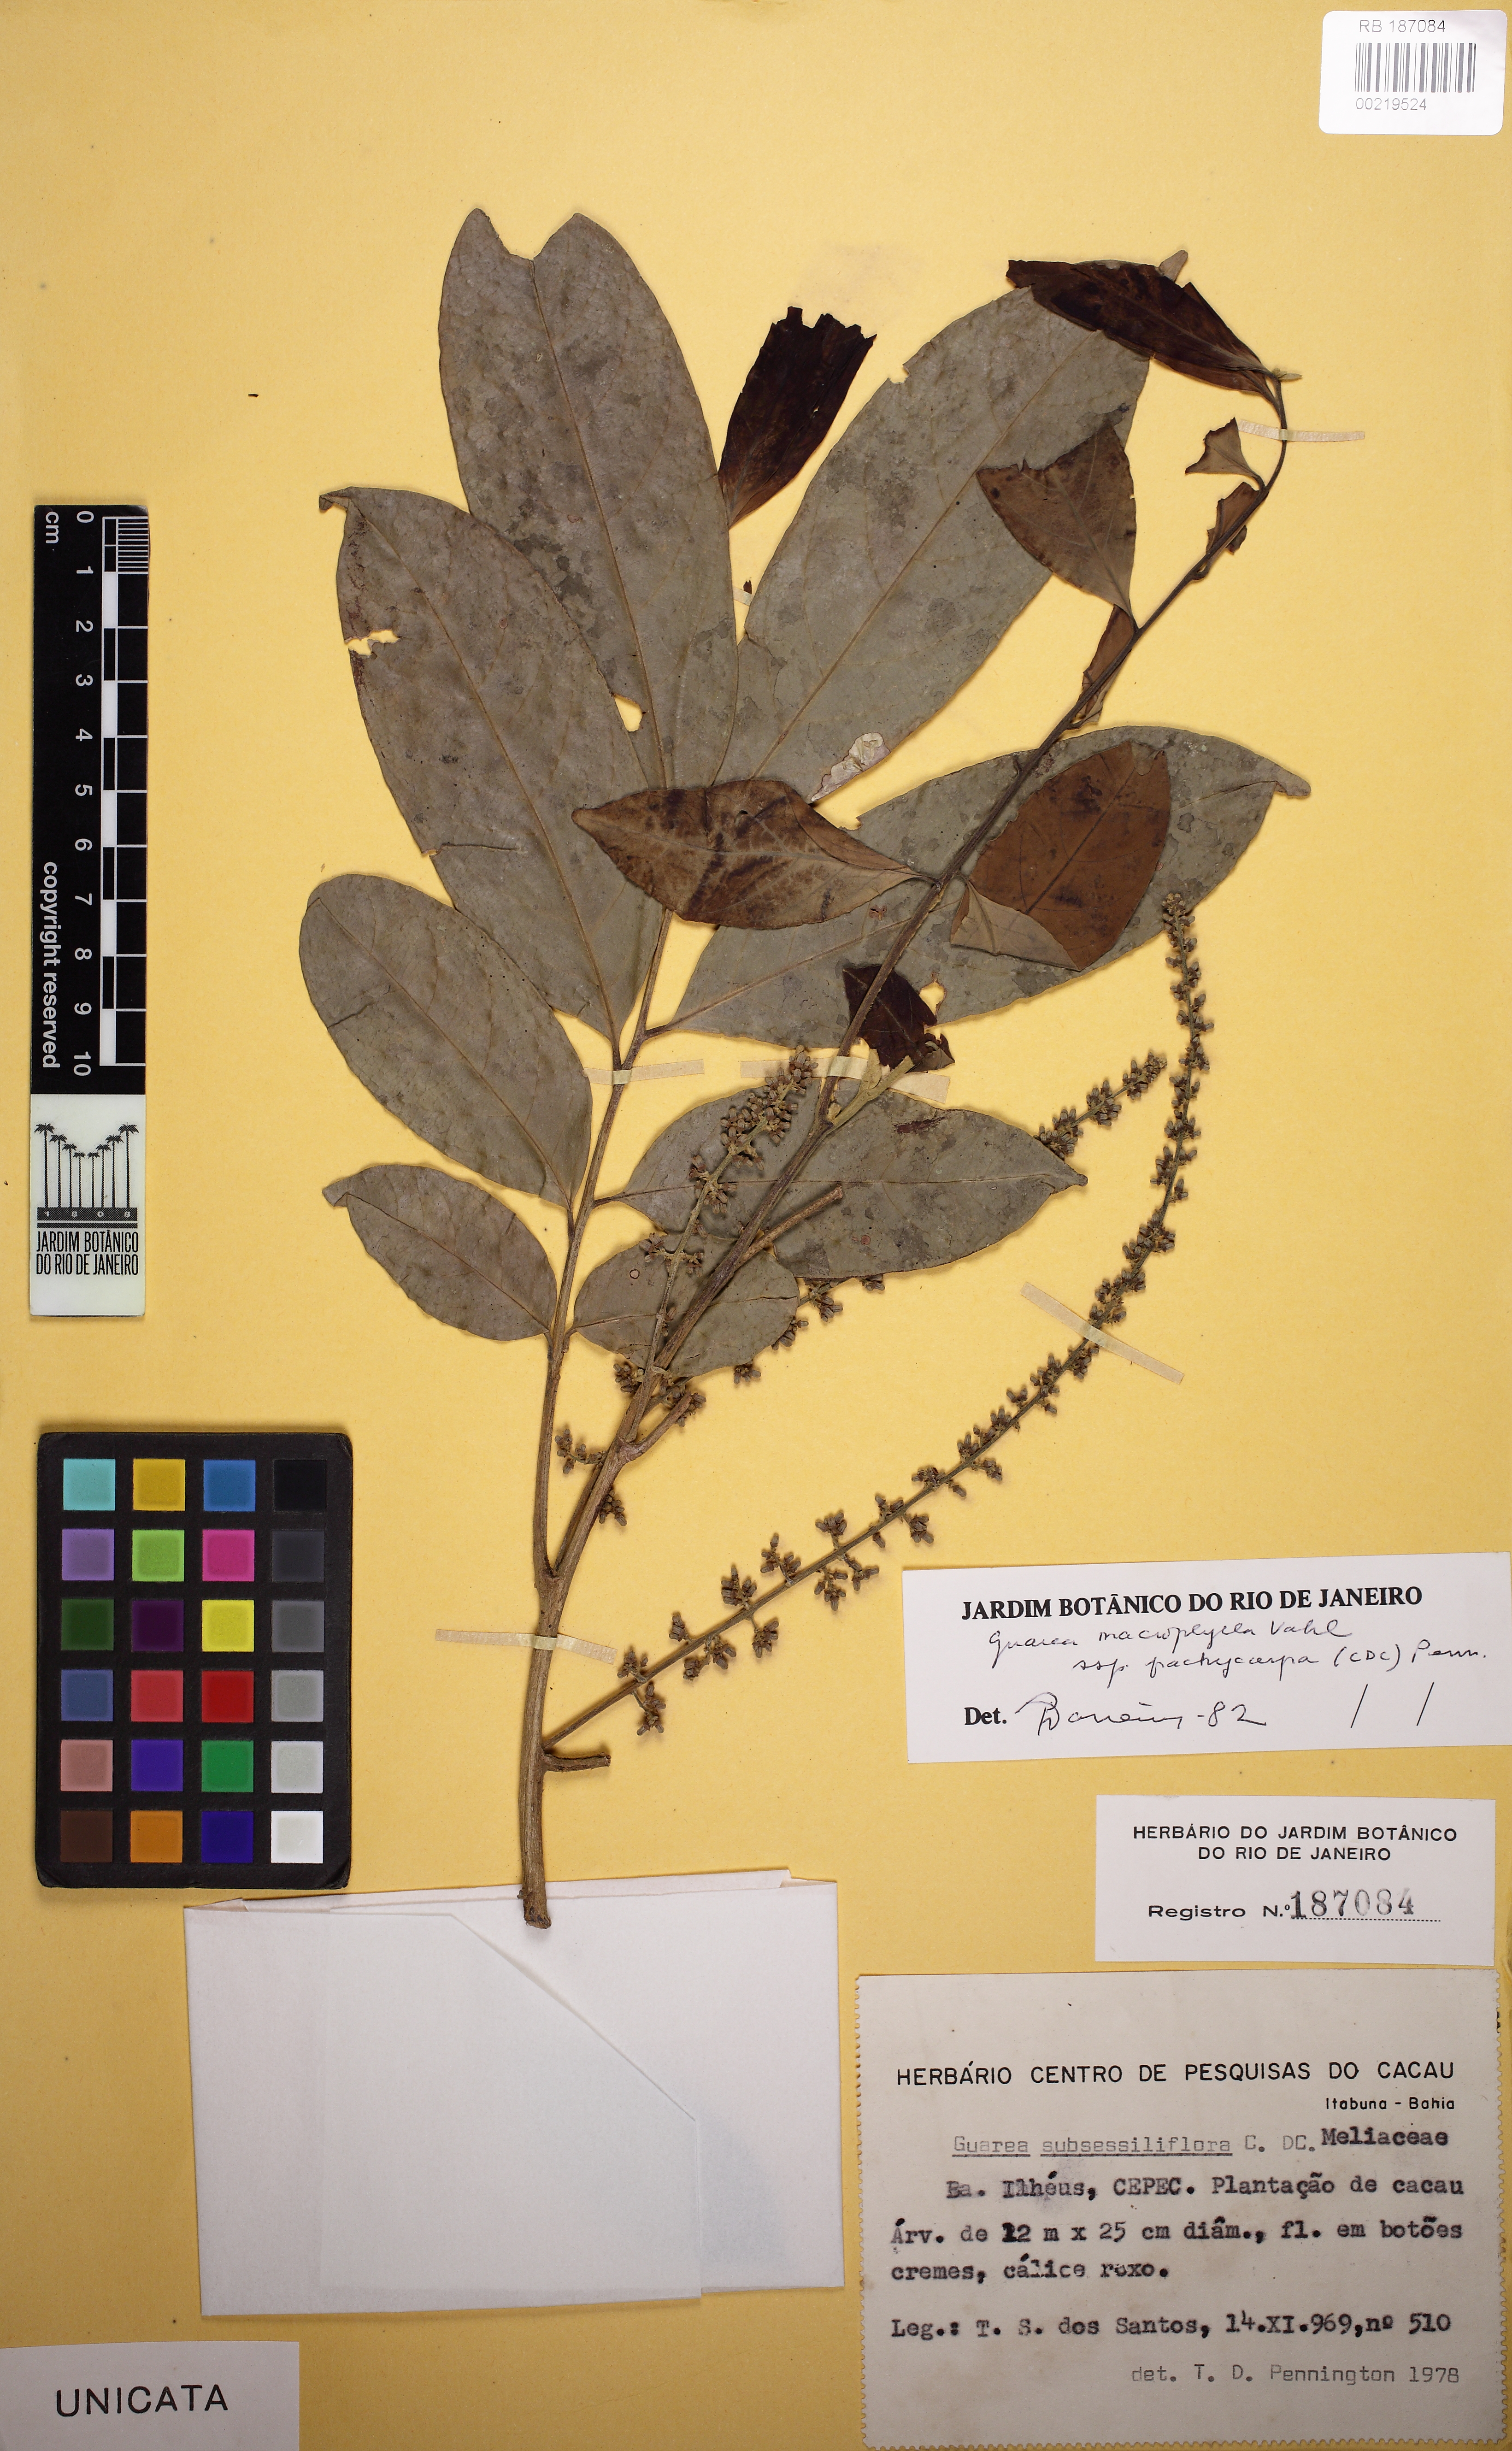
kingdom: Plantae
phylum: Tracheophyta
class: Magnoliopsida
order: Sapindales
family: Meliaceae
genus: Guarea
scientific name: Guarea macrophylla
